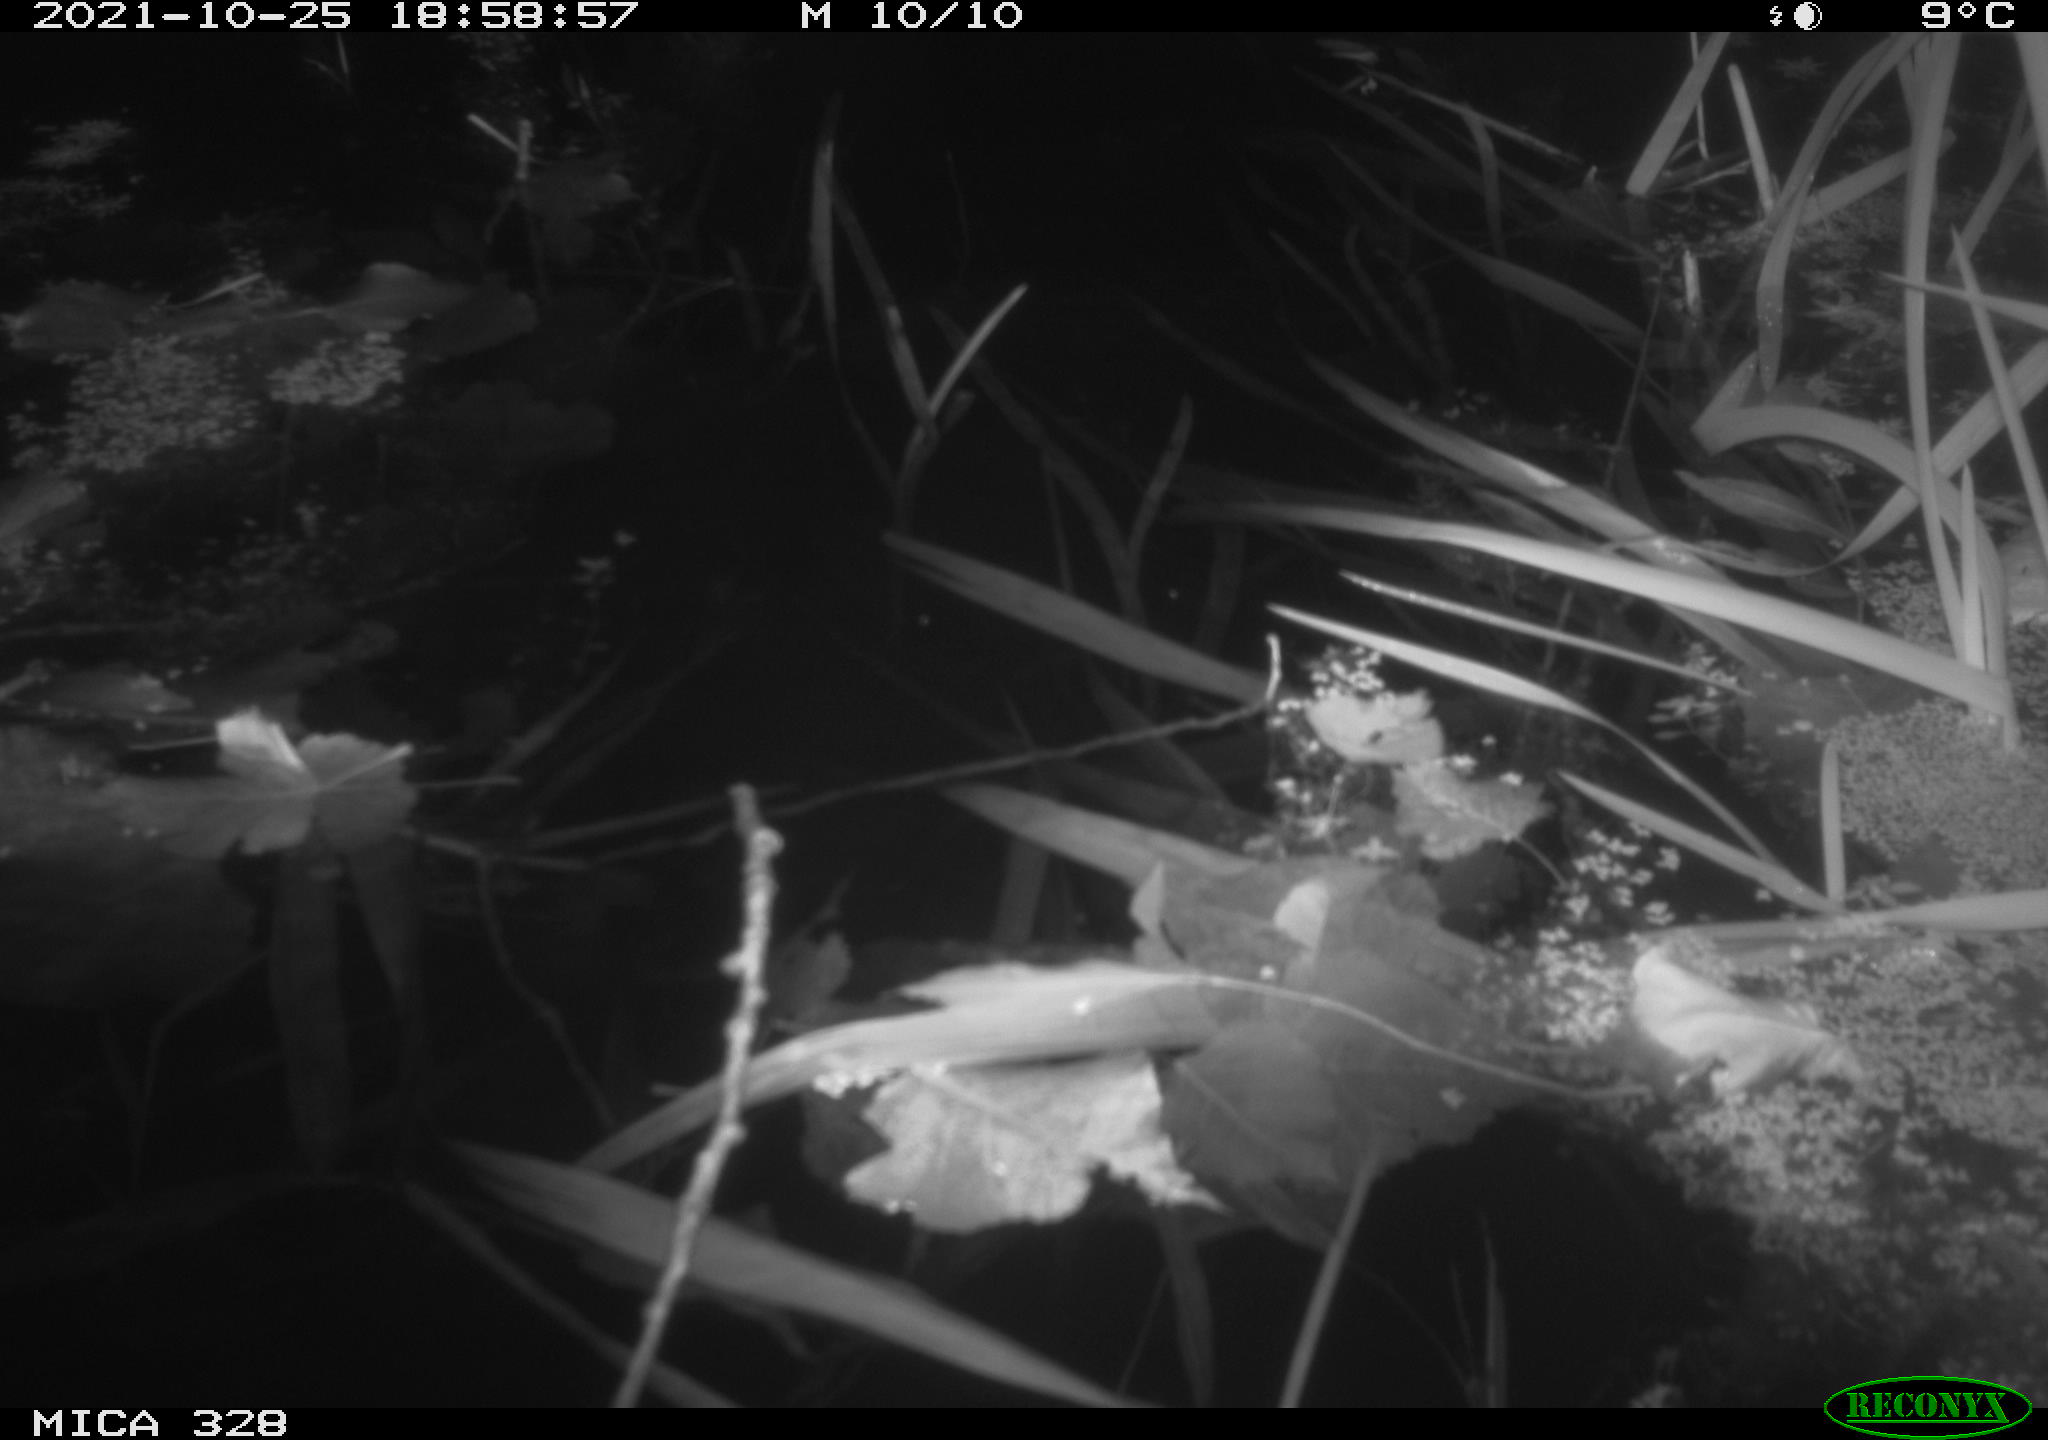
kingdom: Animalia
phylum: Chordata
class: Mammalia
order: Rodentia
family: Cricetidae
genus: Ondatra
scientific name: Ondatra zibethicus
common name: Muskrat
